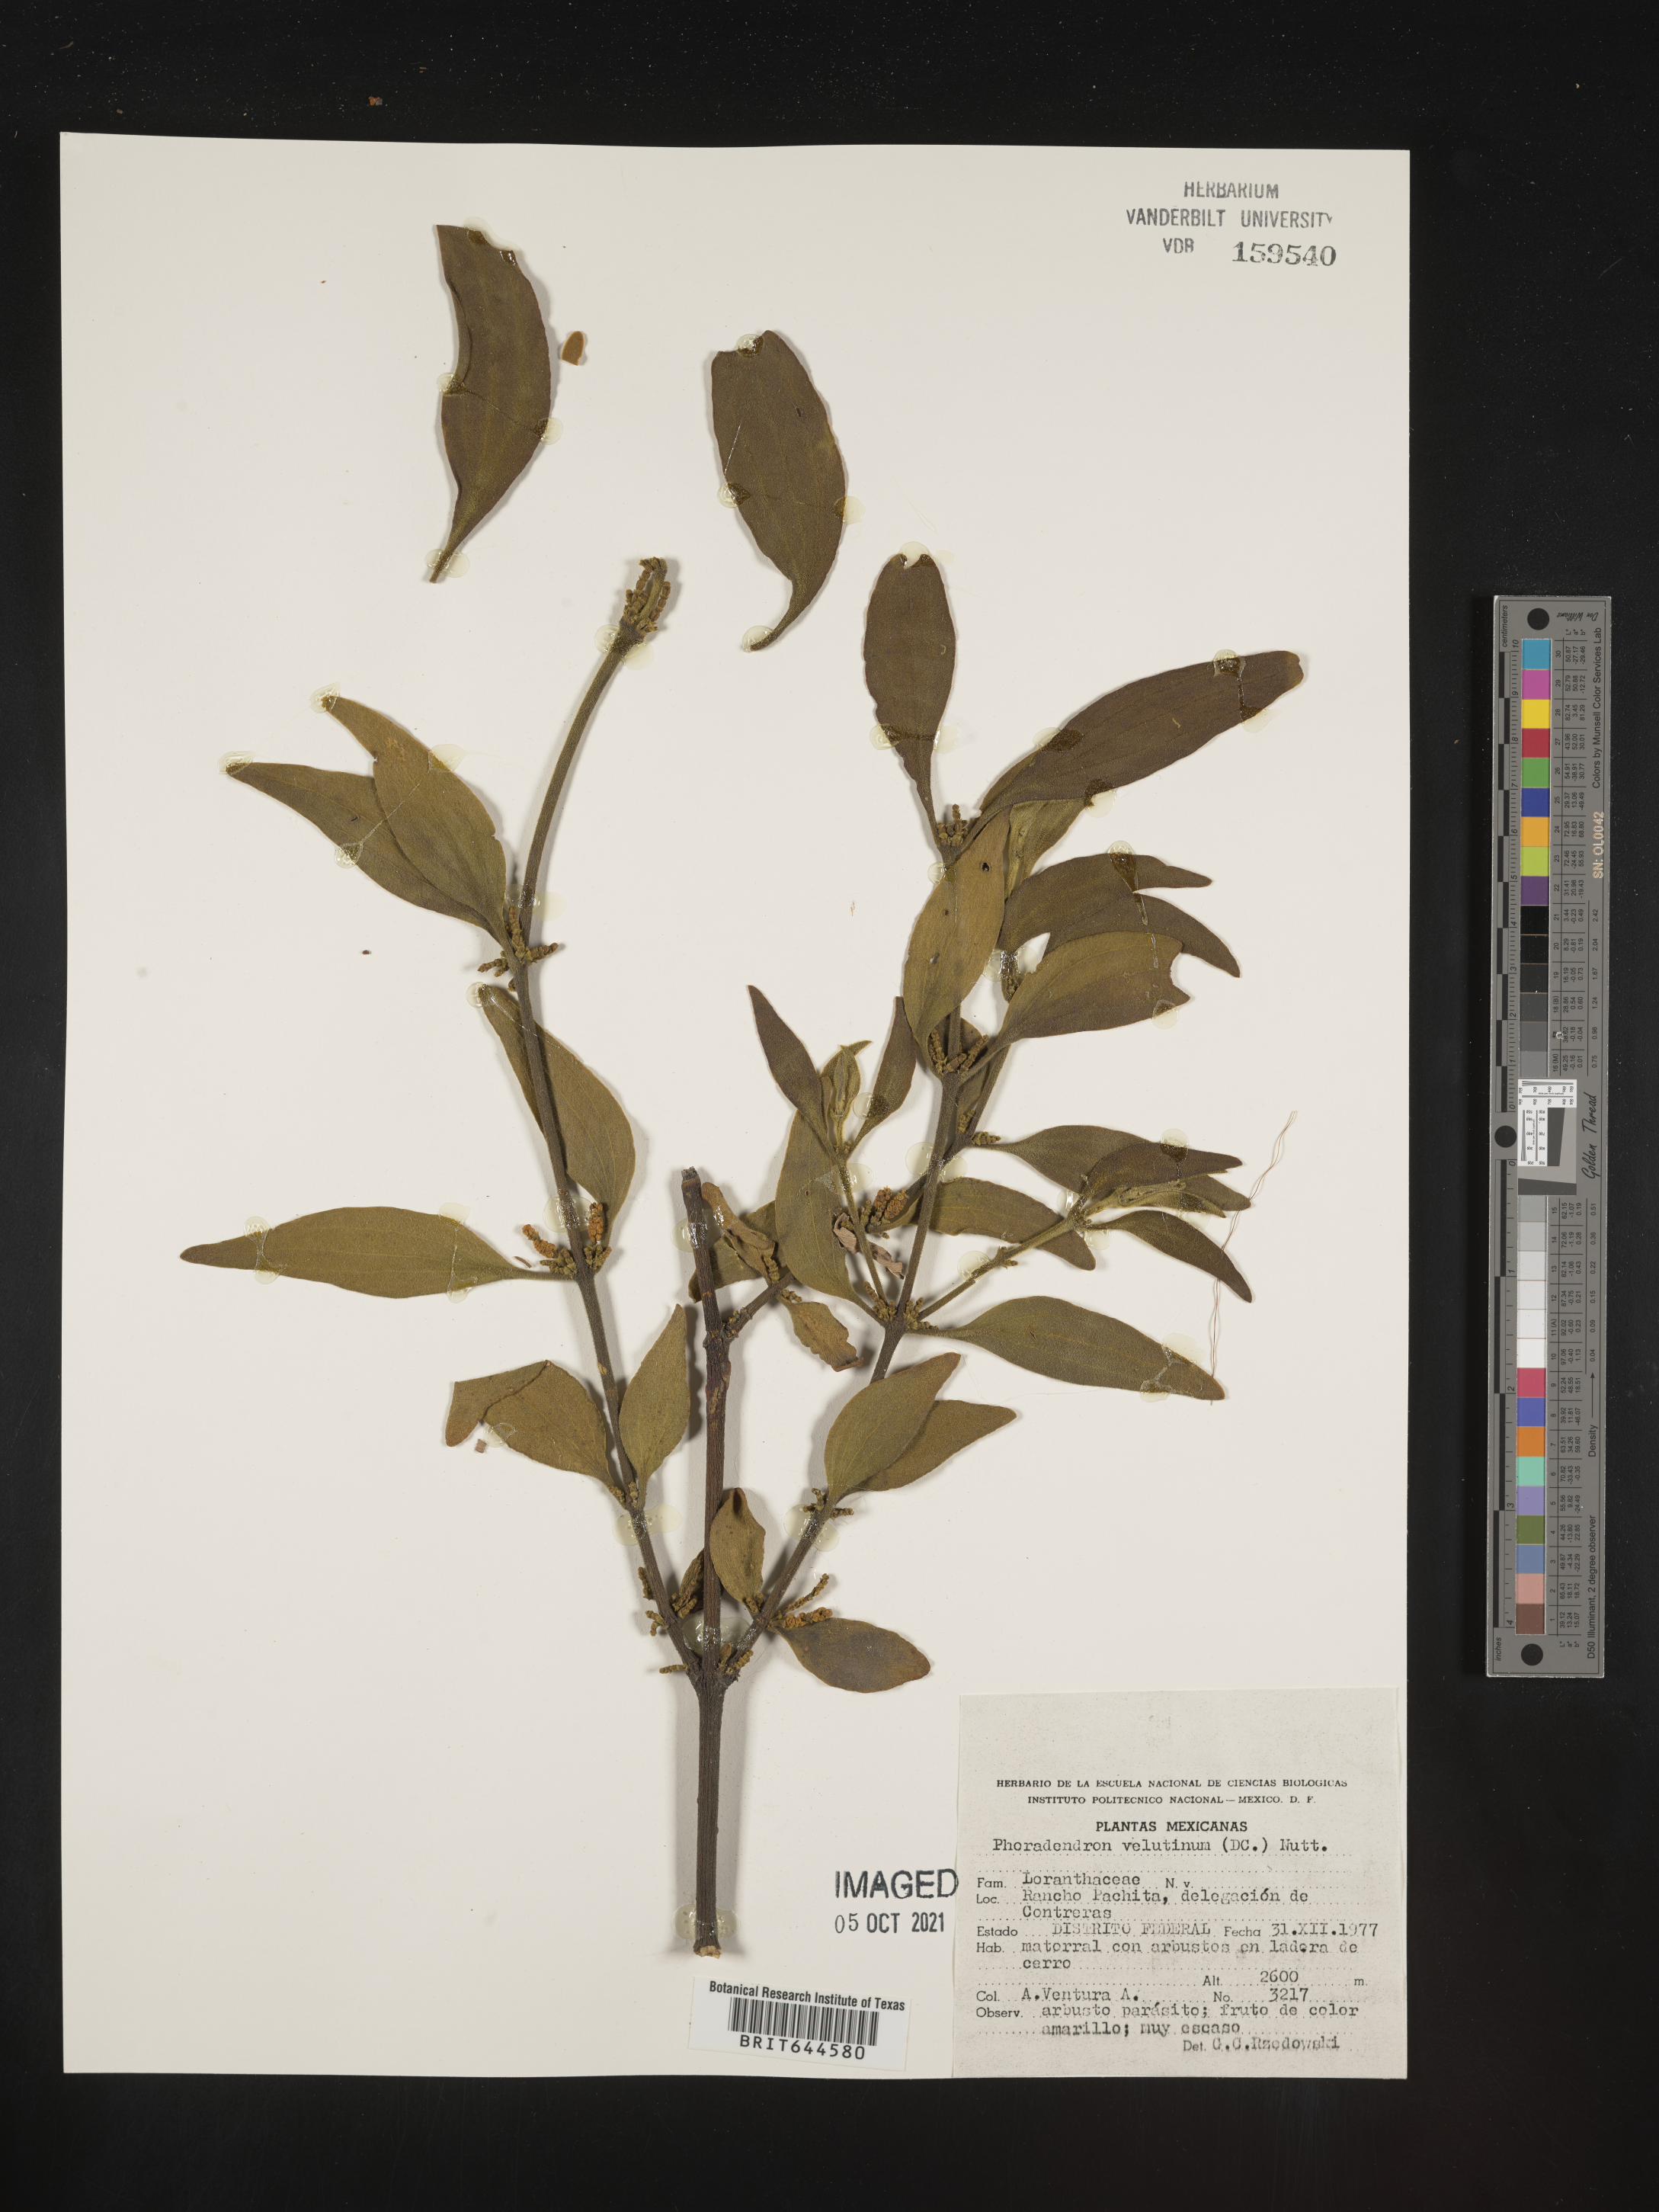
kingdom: Plantae
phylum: Tracheophyta
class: Magnoliopsida
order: Santalales
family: Viscaceae
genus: Phoradendron
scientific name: Phoradendron
